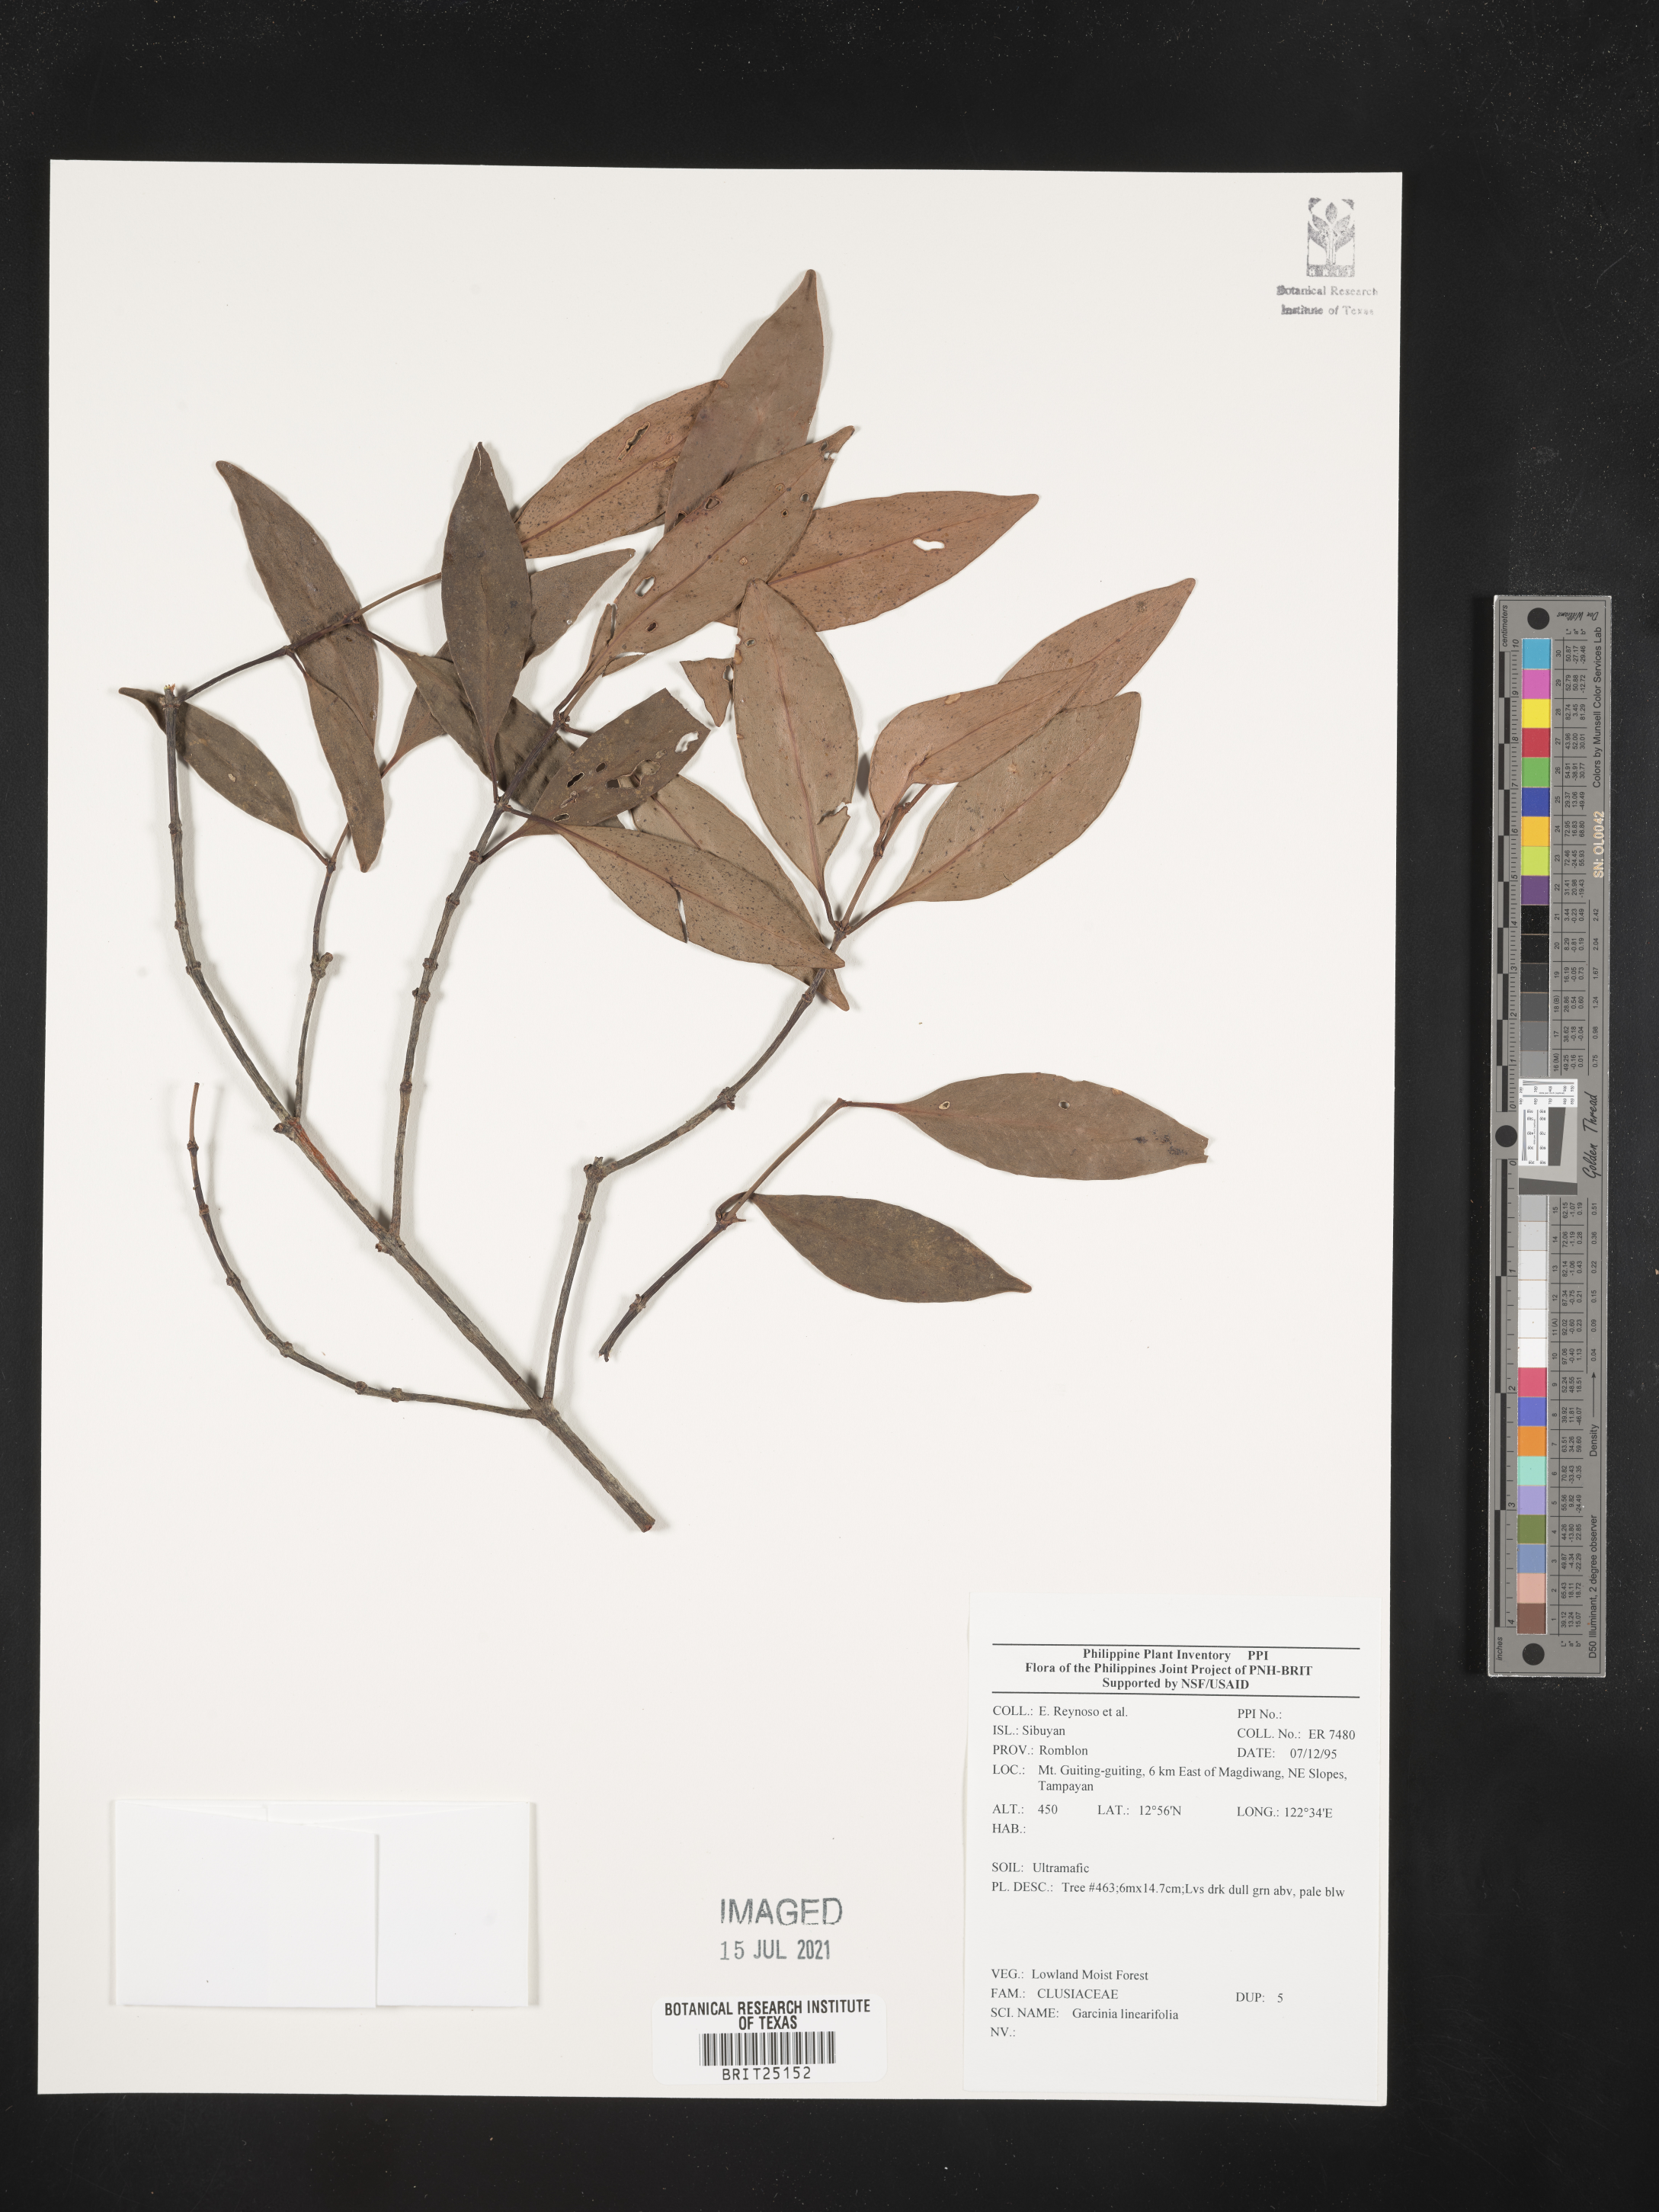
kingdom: Plantae
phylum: Tracheophyta
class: Magnoliopsida
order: Malpighiales
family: Clusiaceae
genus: Garcinia
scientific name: Garcinia linearifolia
